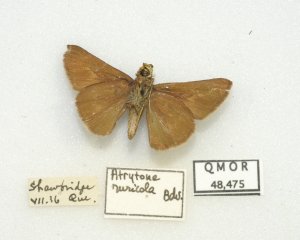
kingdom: Animalia
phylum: Arthropoda
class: Insecta
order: Lepidoptera
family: Hesperiidae
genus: Euphyes
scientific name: Euphyes vestris
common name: Dun Skipper
